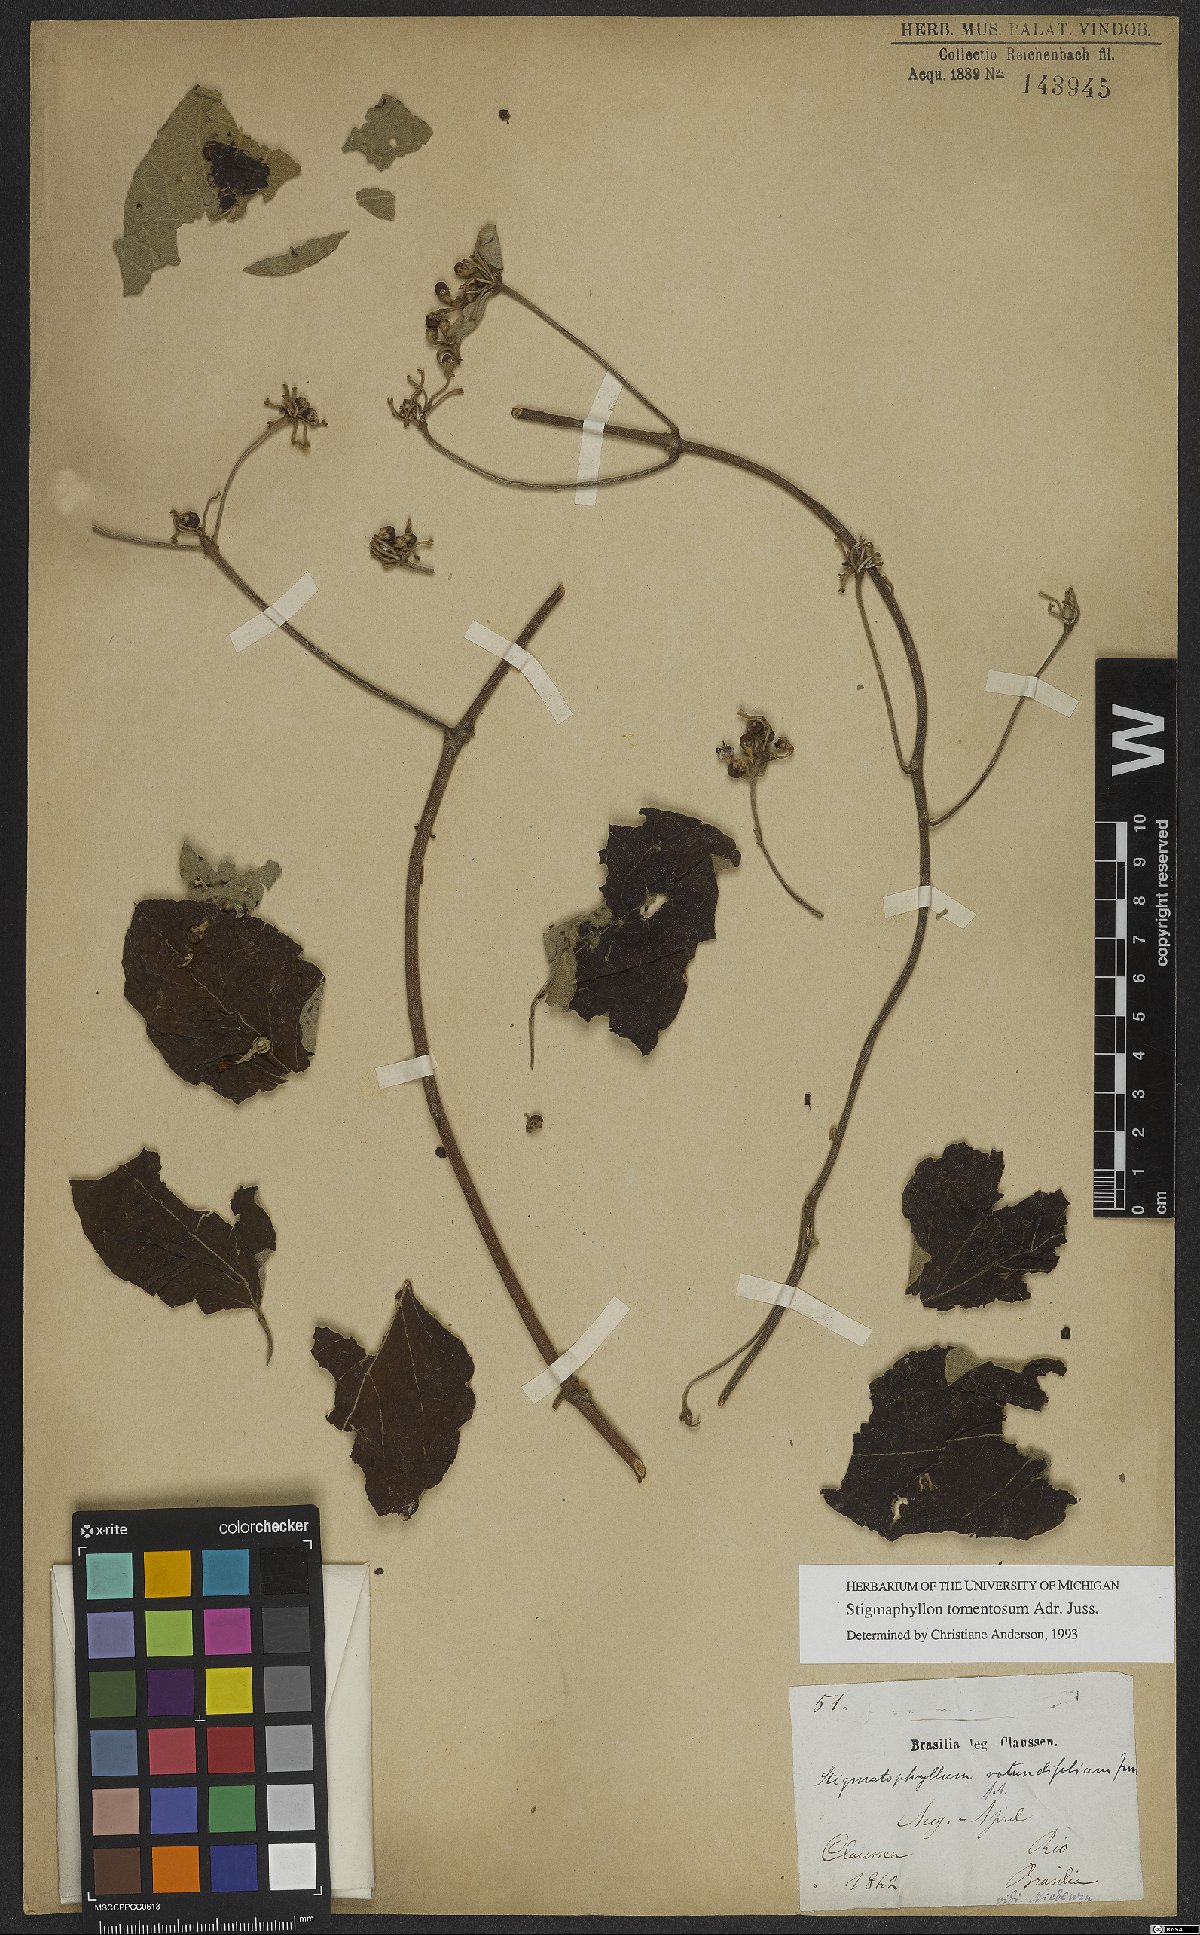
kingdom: Plantae
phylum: Tracheophyta
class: Magnoliopsida
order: Malpighiales
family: Malpighiaceae
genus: Stigmaphyllon
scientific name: Stigmaphyllon tomentosum
